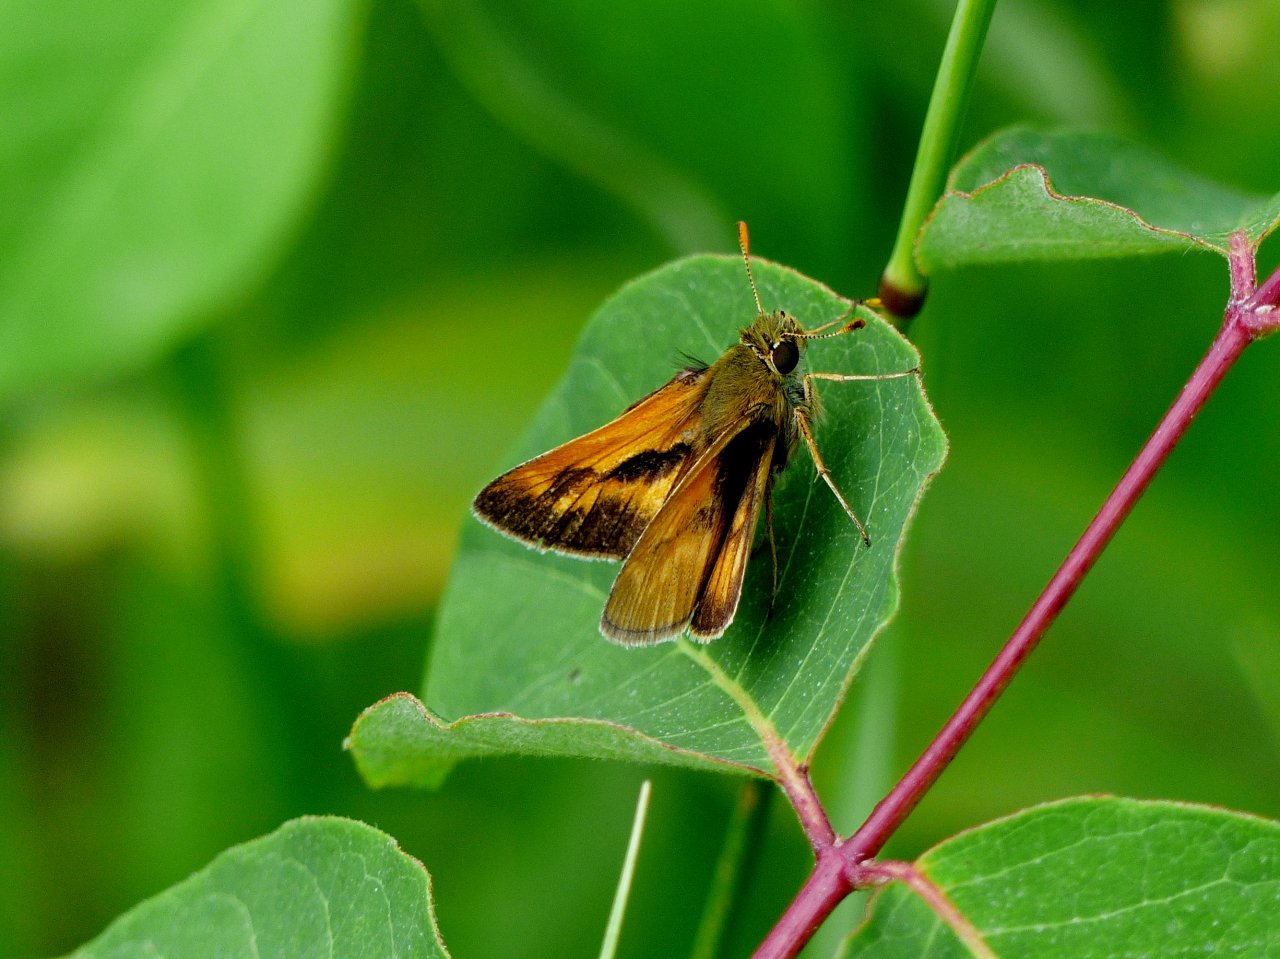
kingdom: Animalia
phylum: Arthropoda
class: Insecta
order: Lepidoptera
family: Hesperiidae
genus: Polites
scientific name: Polites
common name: Long Dash Skipper
